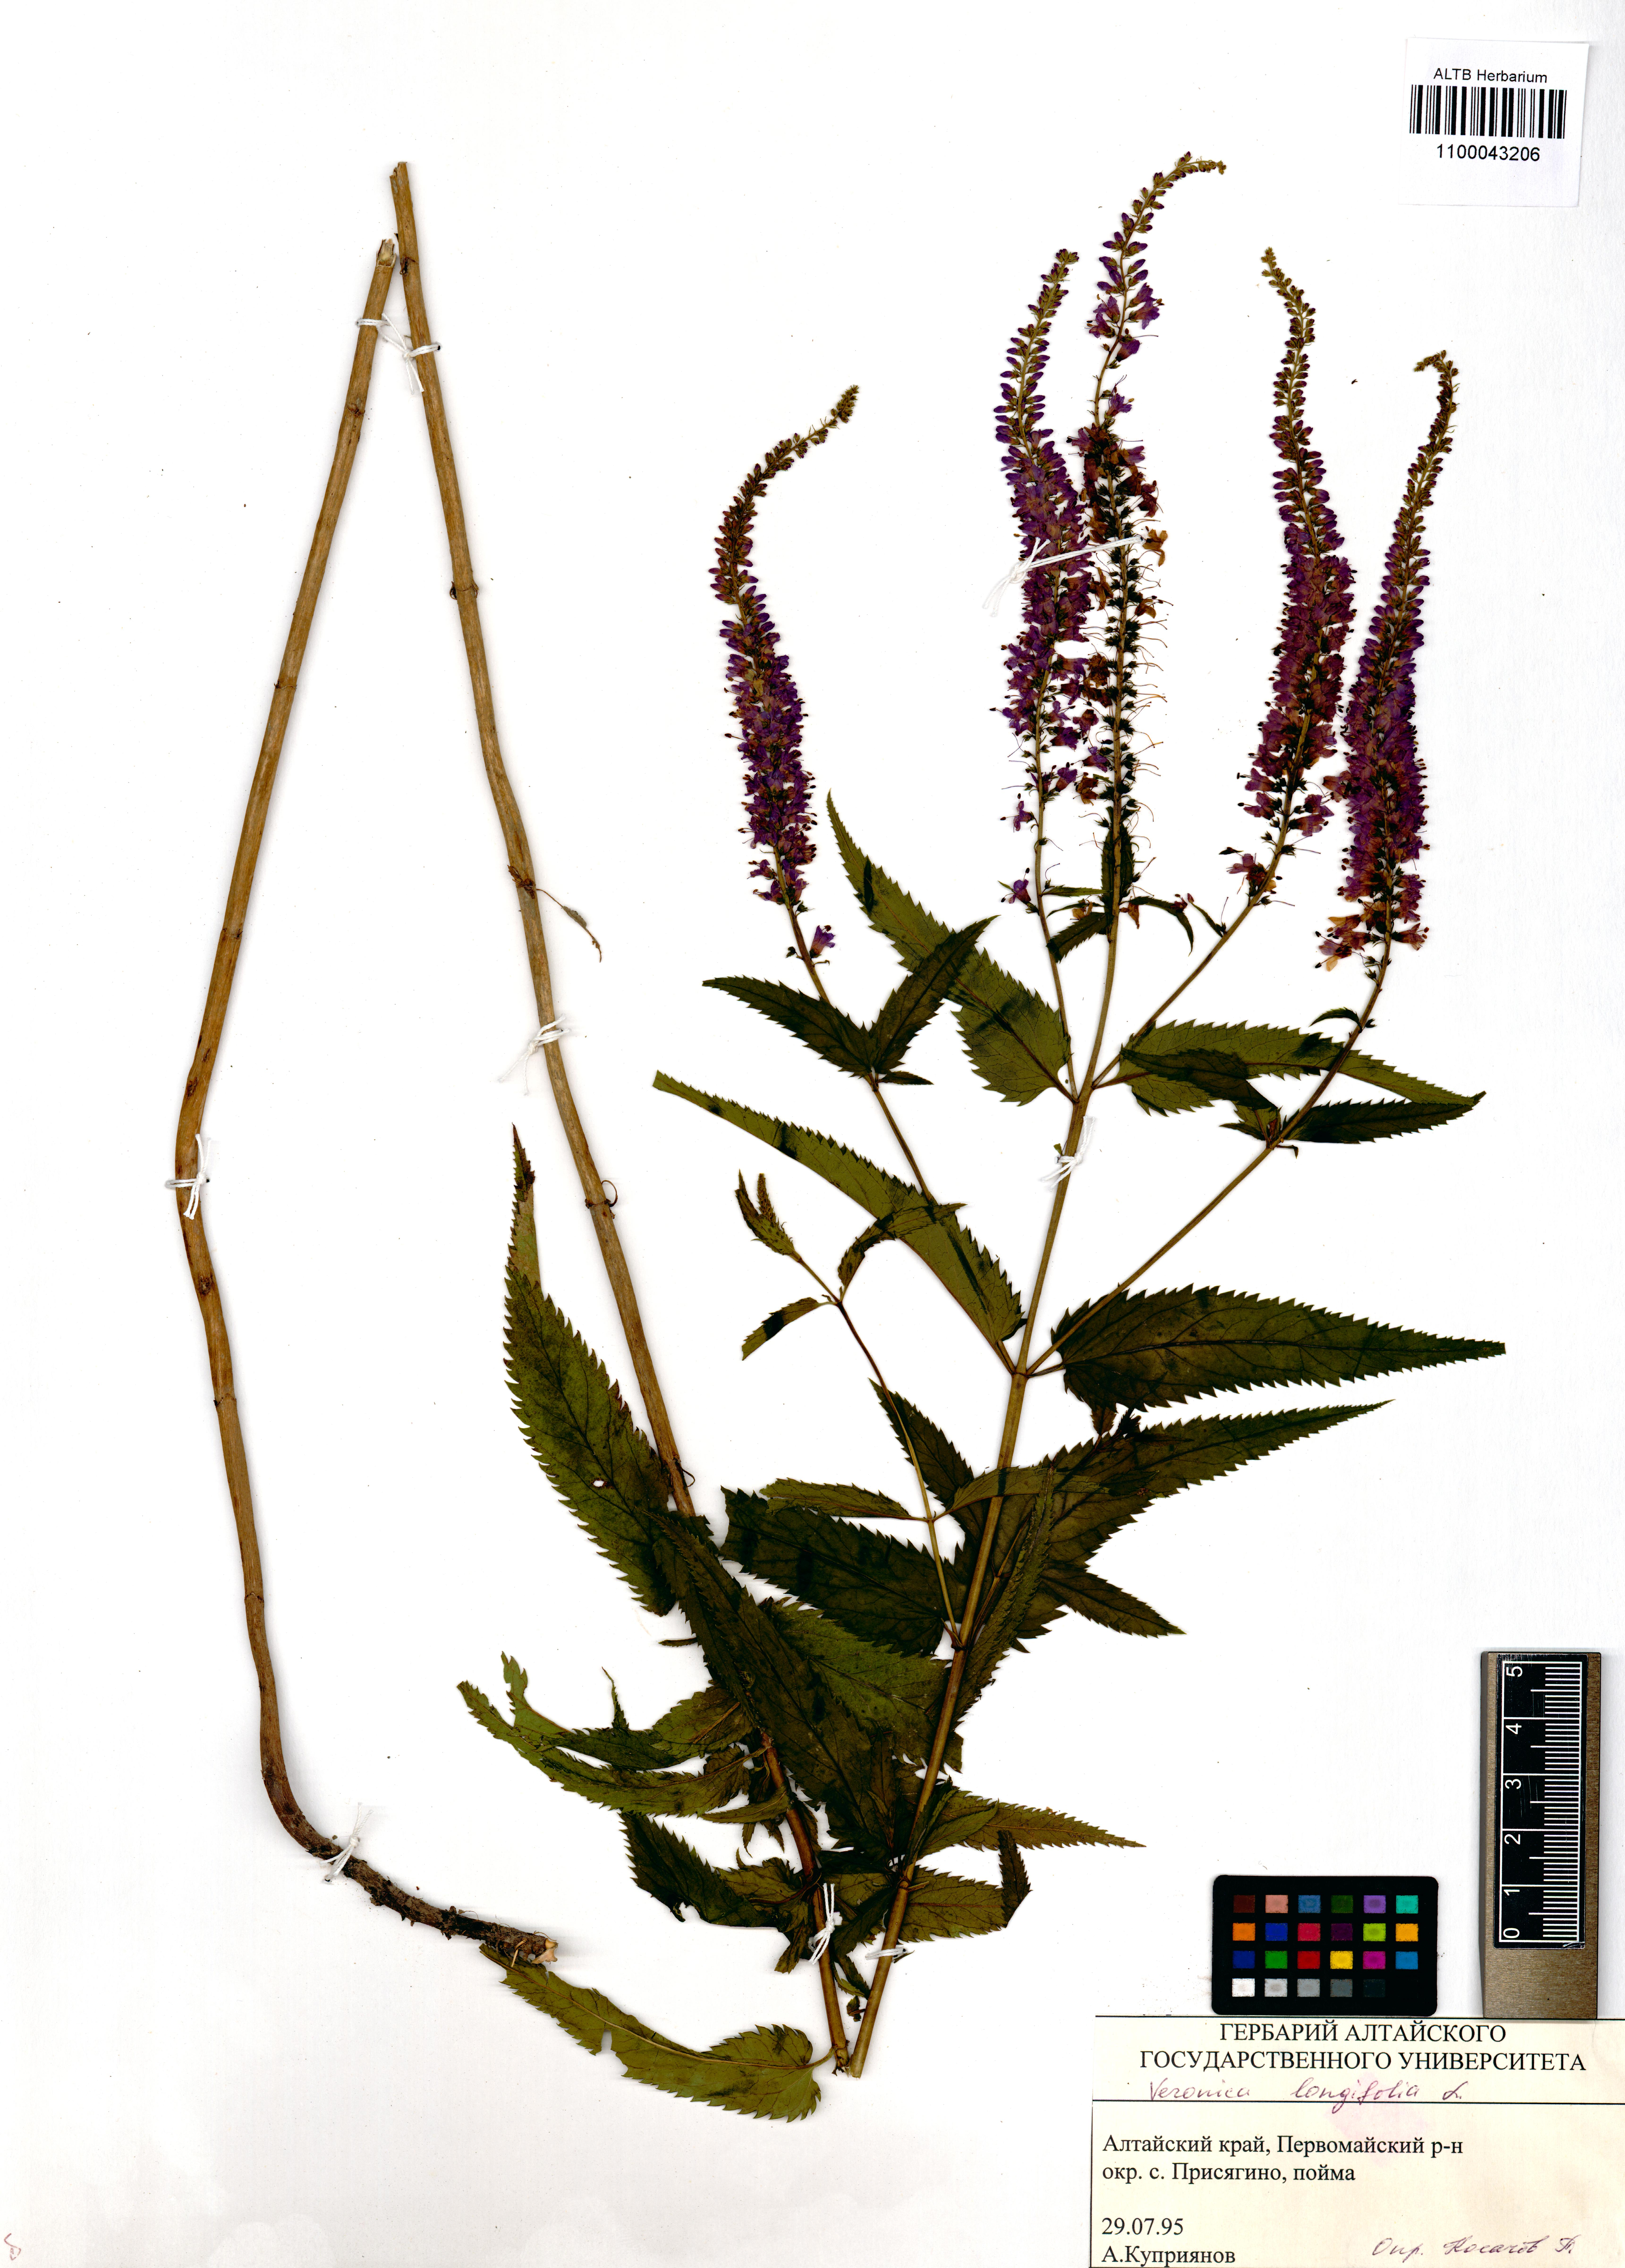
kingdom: Plantae
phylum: Tracheophyta
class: Magnoliopsida
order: Lamiales
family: Plantaginaceae
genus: Veronica
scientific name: Veronica longifolia
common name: Garden speedwell
